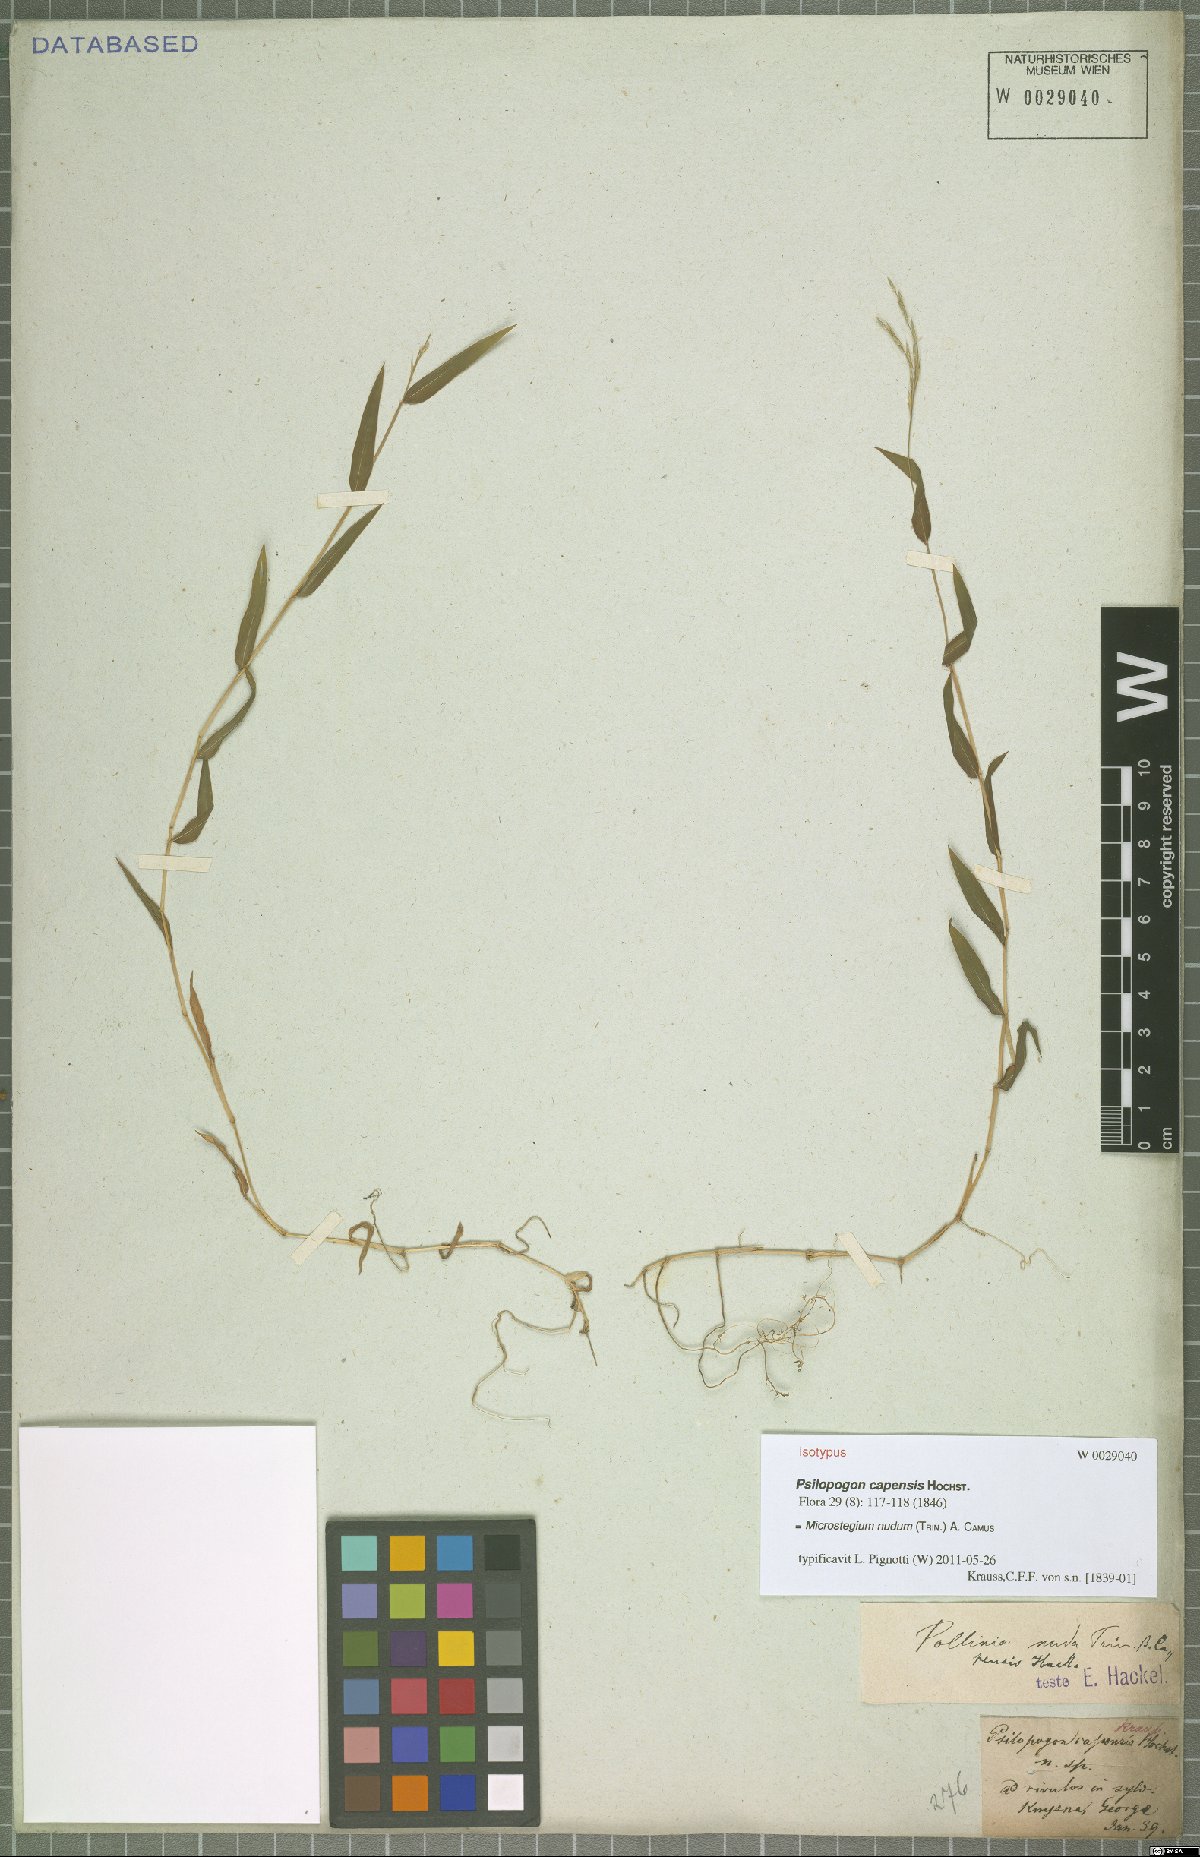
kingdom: Plantae
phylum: Tracheophyta
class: Liliopsida
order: Poales
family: Poaceae
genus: Microstegium
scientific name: Microstegium nudum
